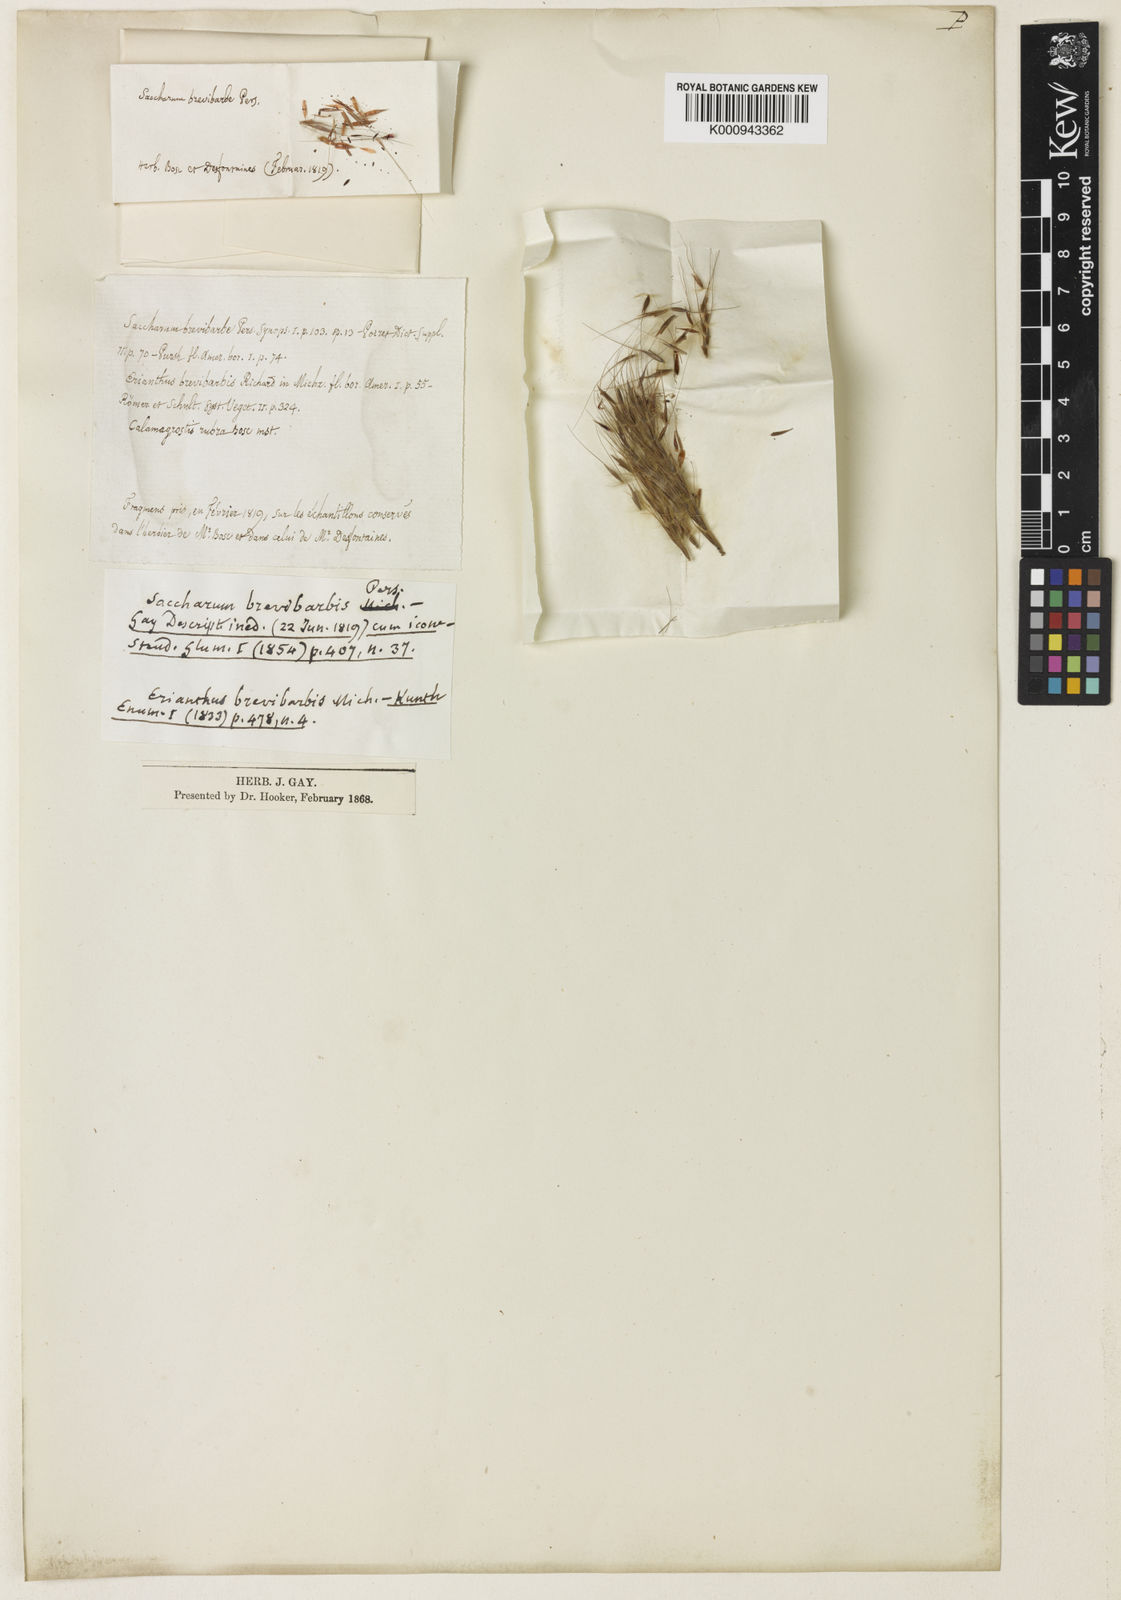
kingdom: Plantae
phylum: Tracheophyta
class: Liliopsida
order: Poales
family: Poaceae
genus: Saccharum
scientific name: Saccharum
